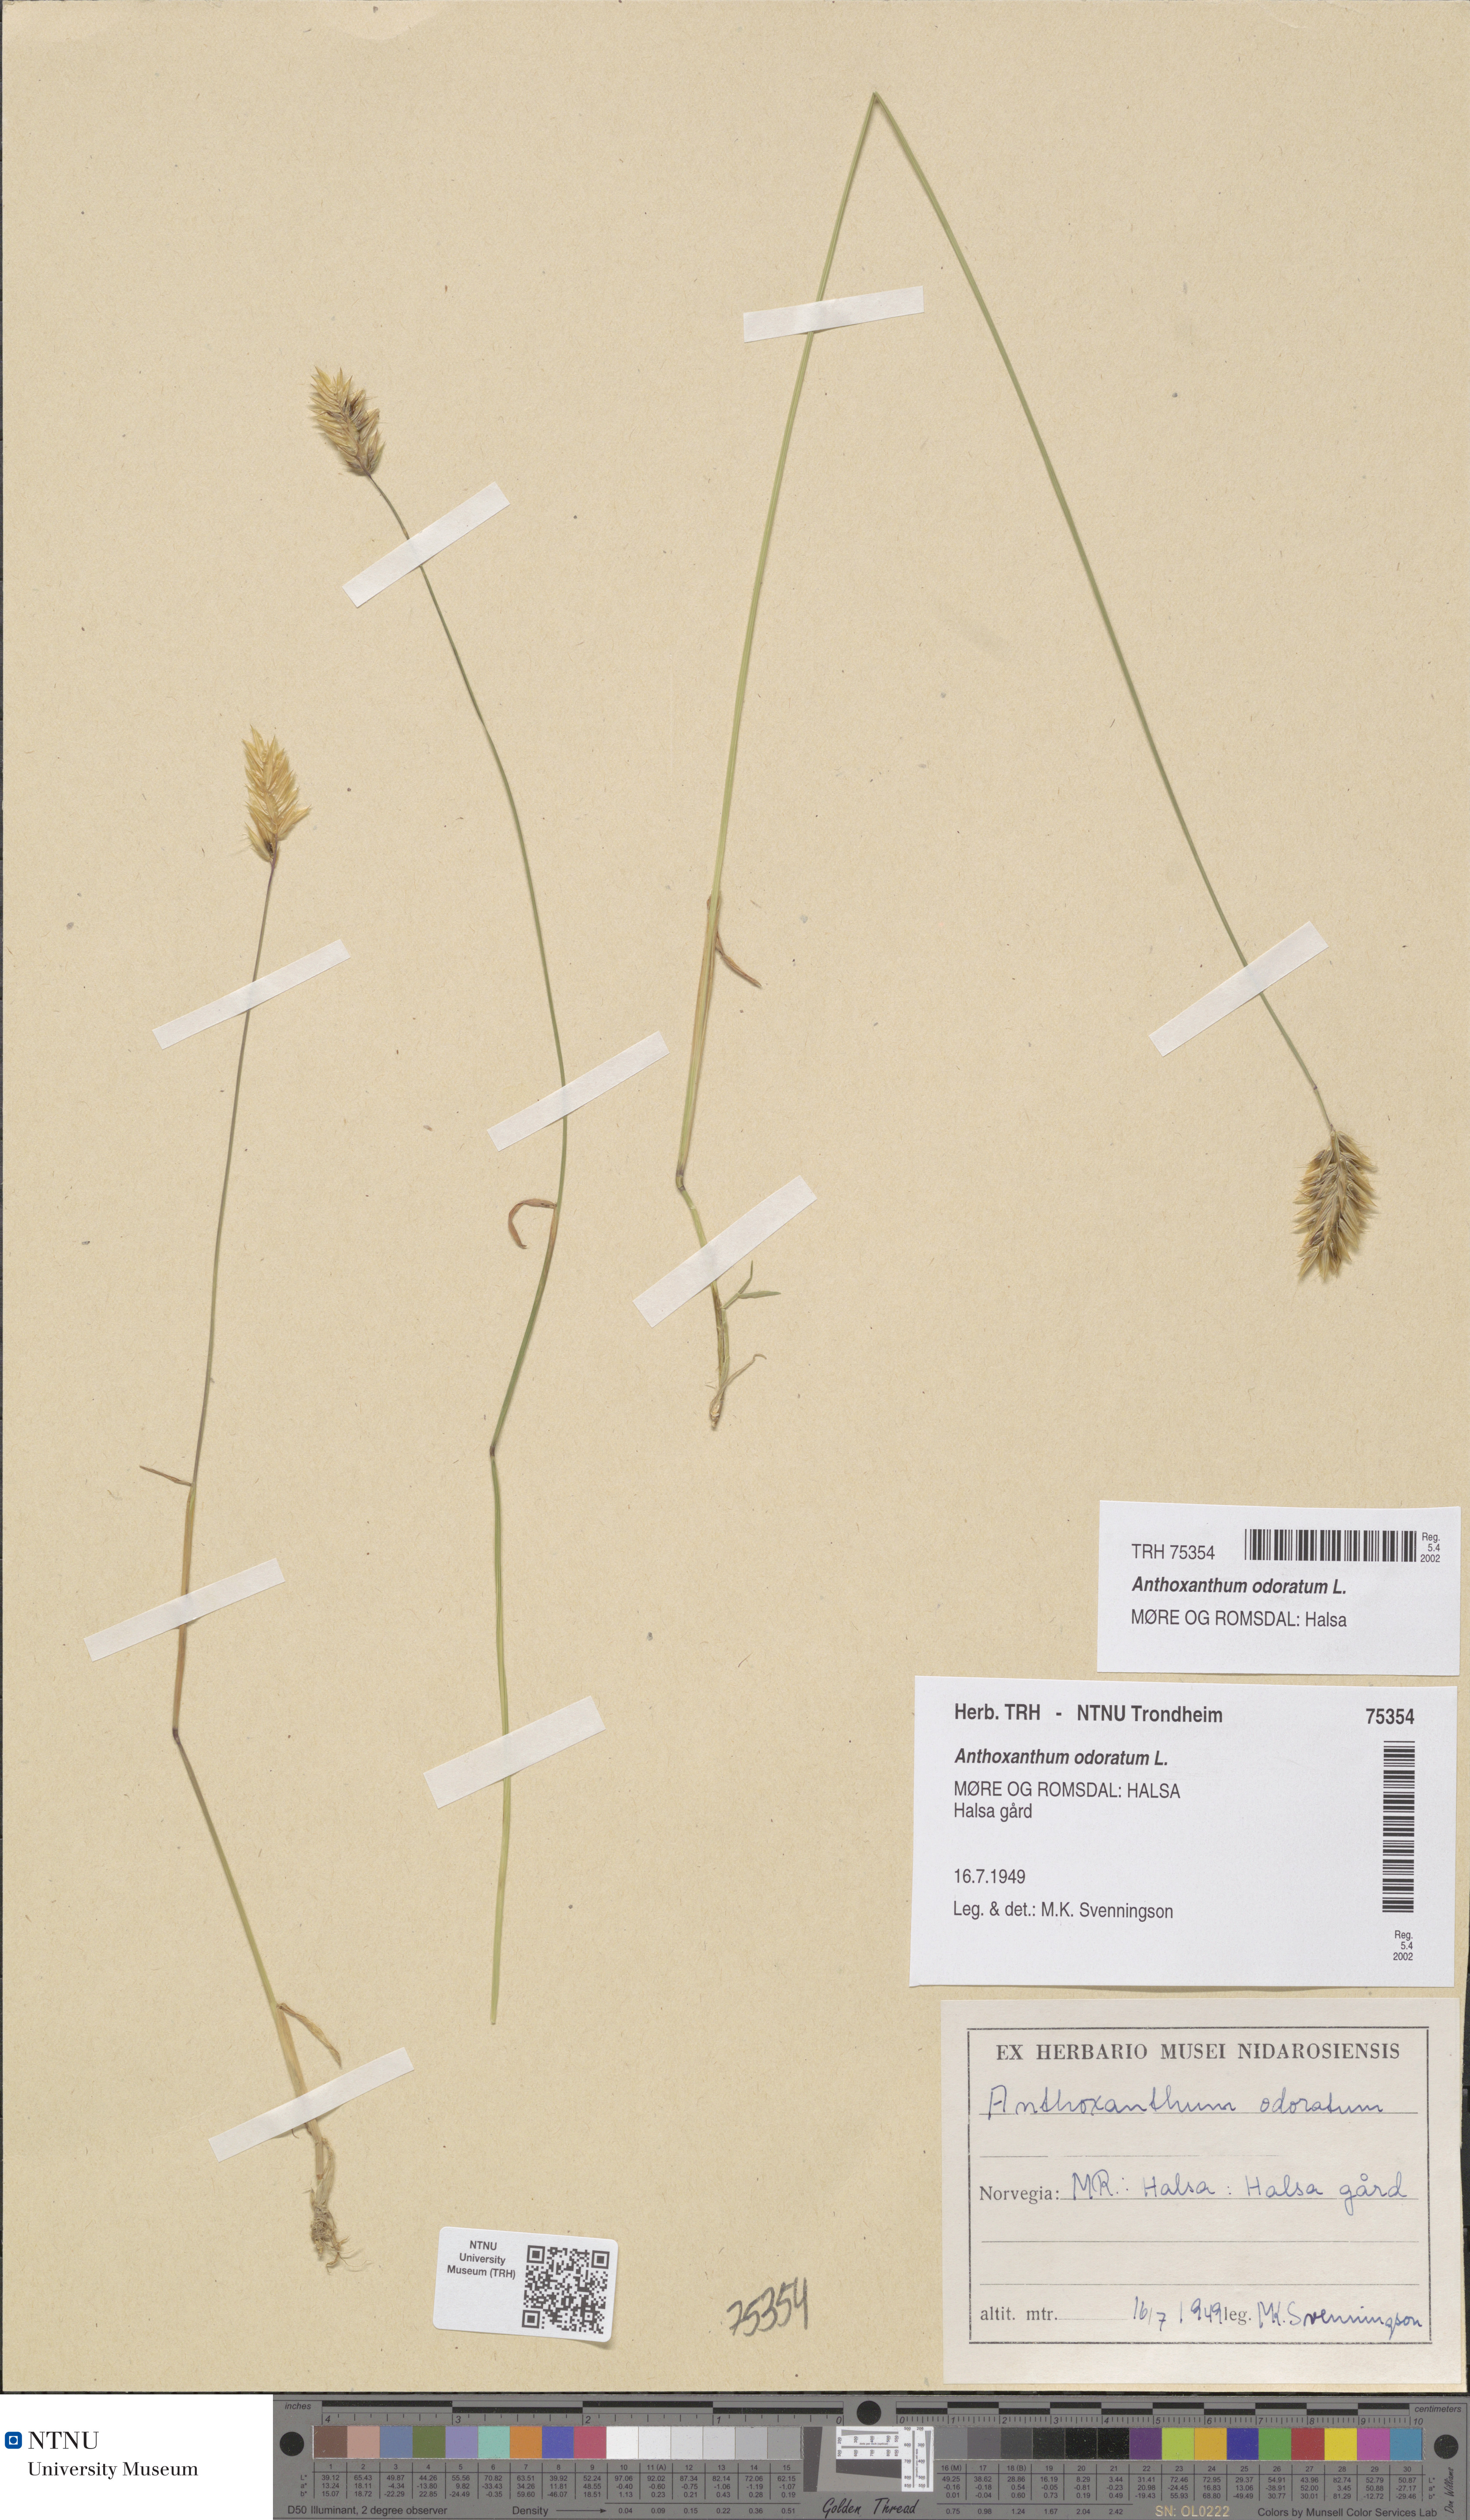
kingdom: Plantae
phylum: Tracheophyta
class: Liliopsida
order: Poales
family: Poaceae
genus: Anthoxanthum
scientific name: Anthoxanthum odoratum
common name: Sweet vernalgrass
